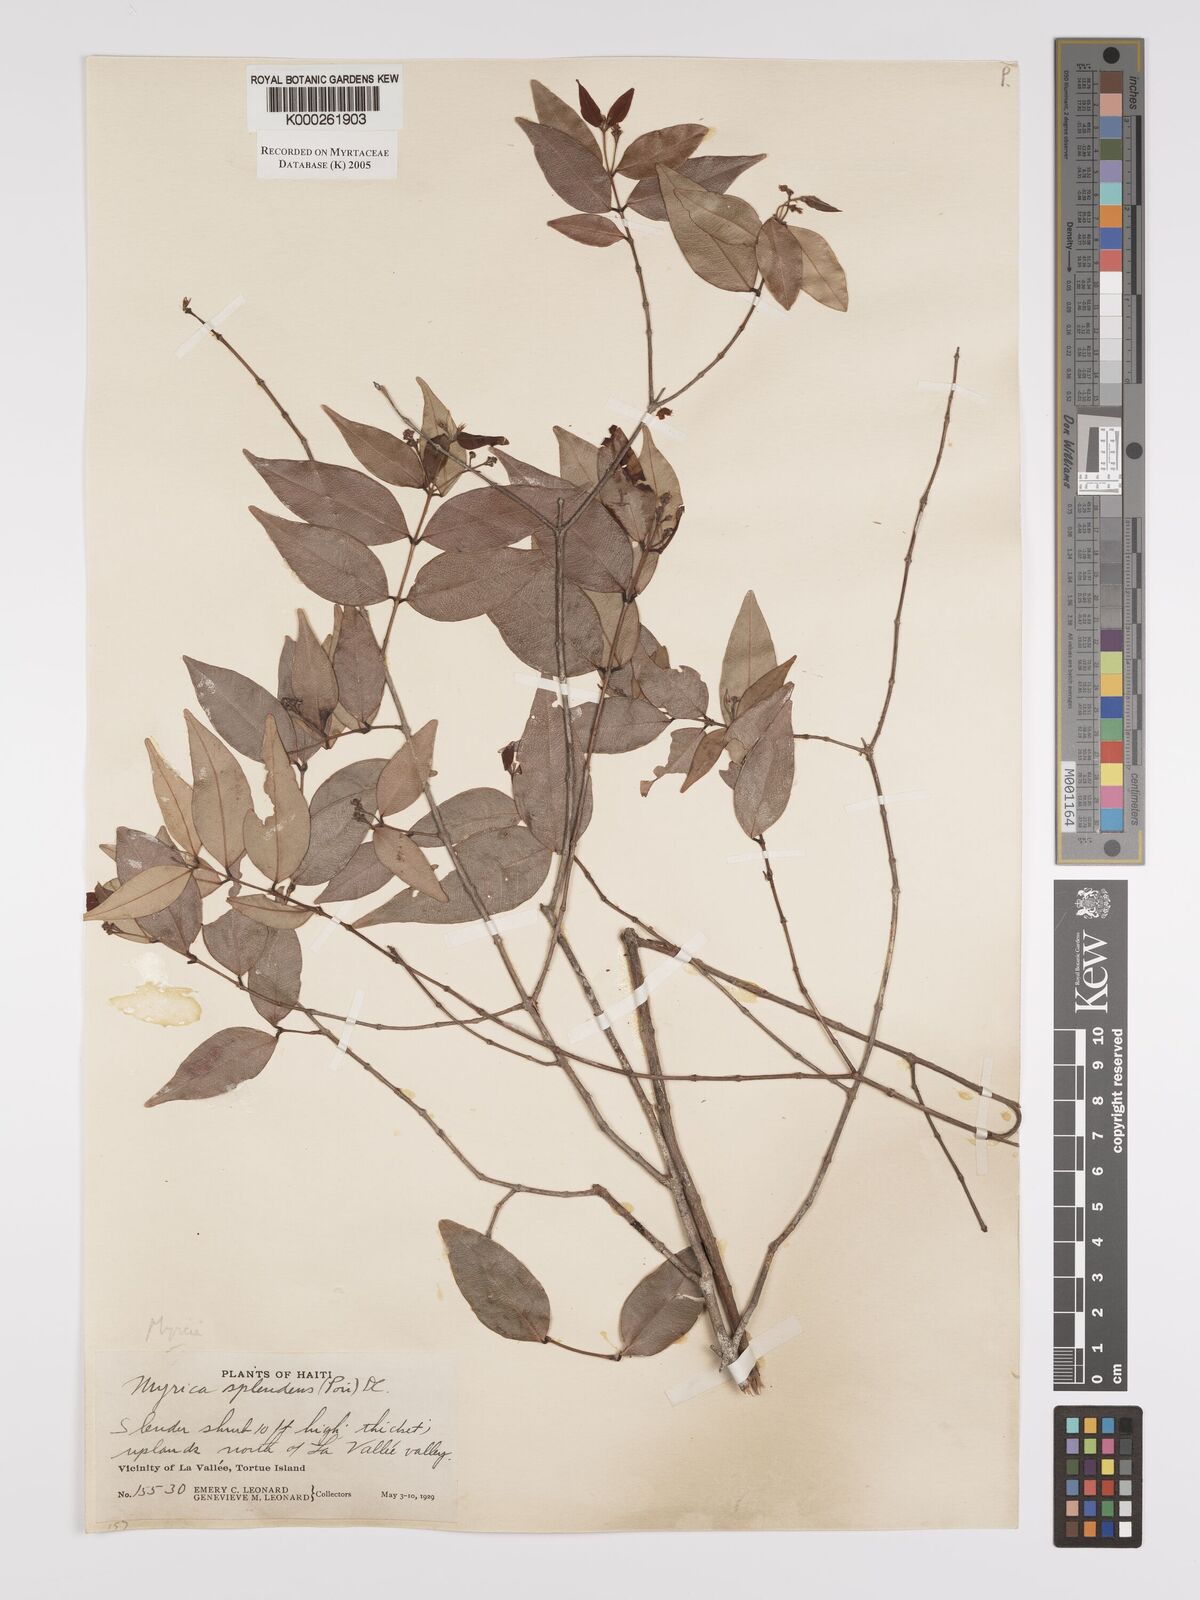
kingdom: Plantae
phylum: Tracheophyta
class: Magnoliopsida
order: Myrtales
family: Myrtaceae
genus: Myrcia
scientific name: Myrcia splendens
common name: Surinam cherry
